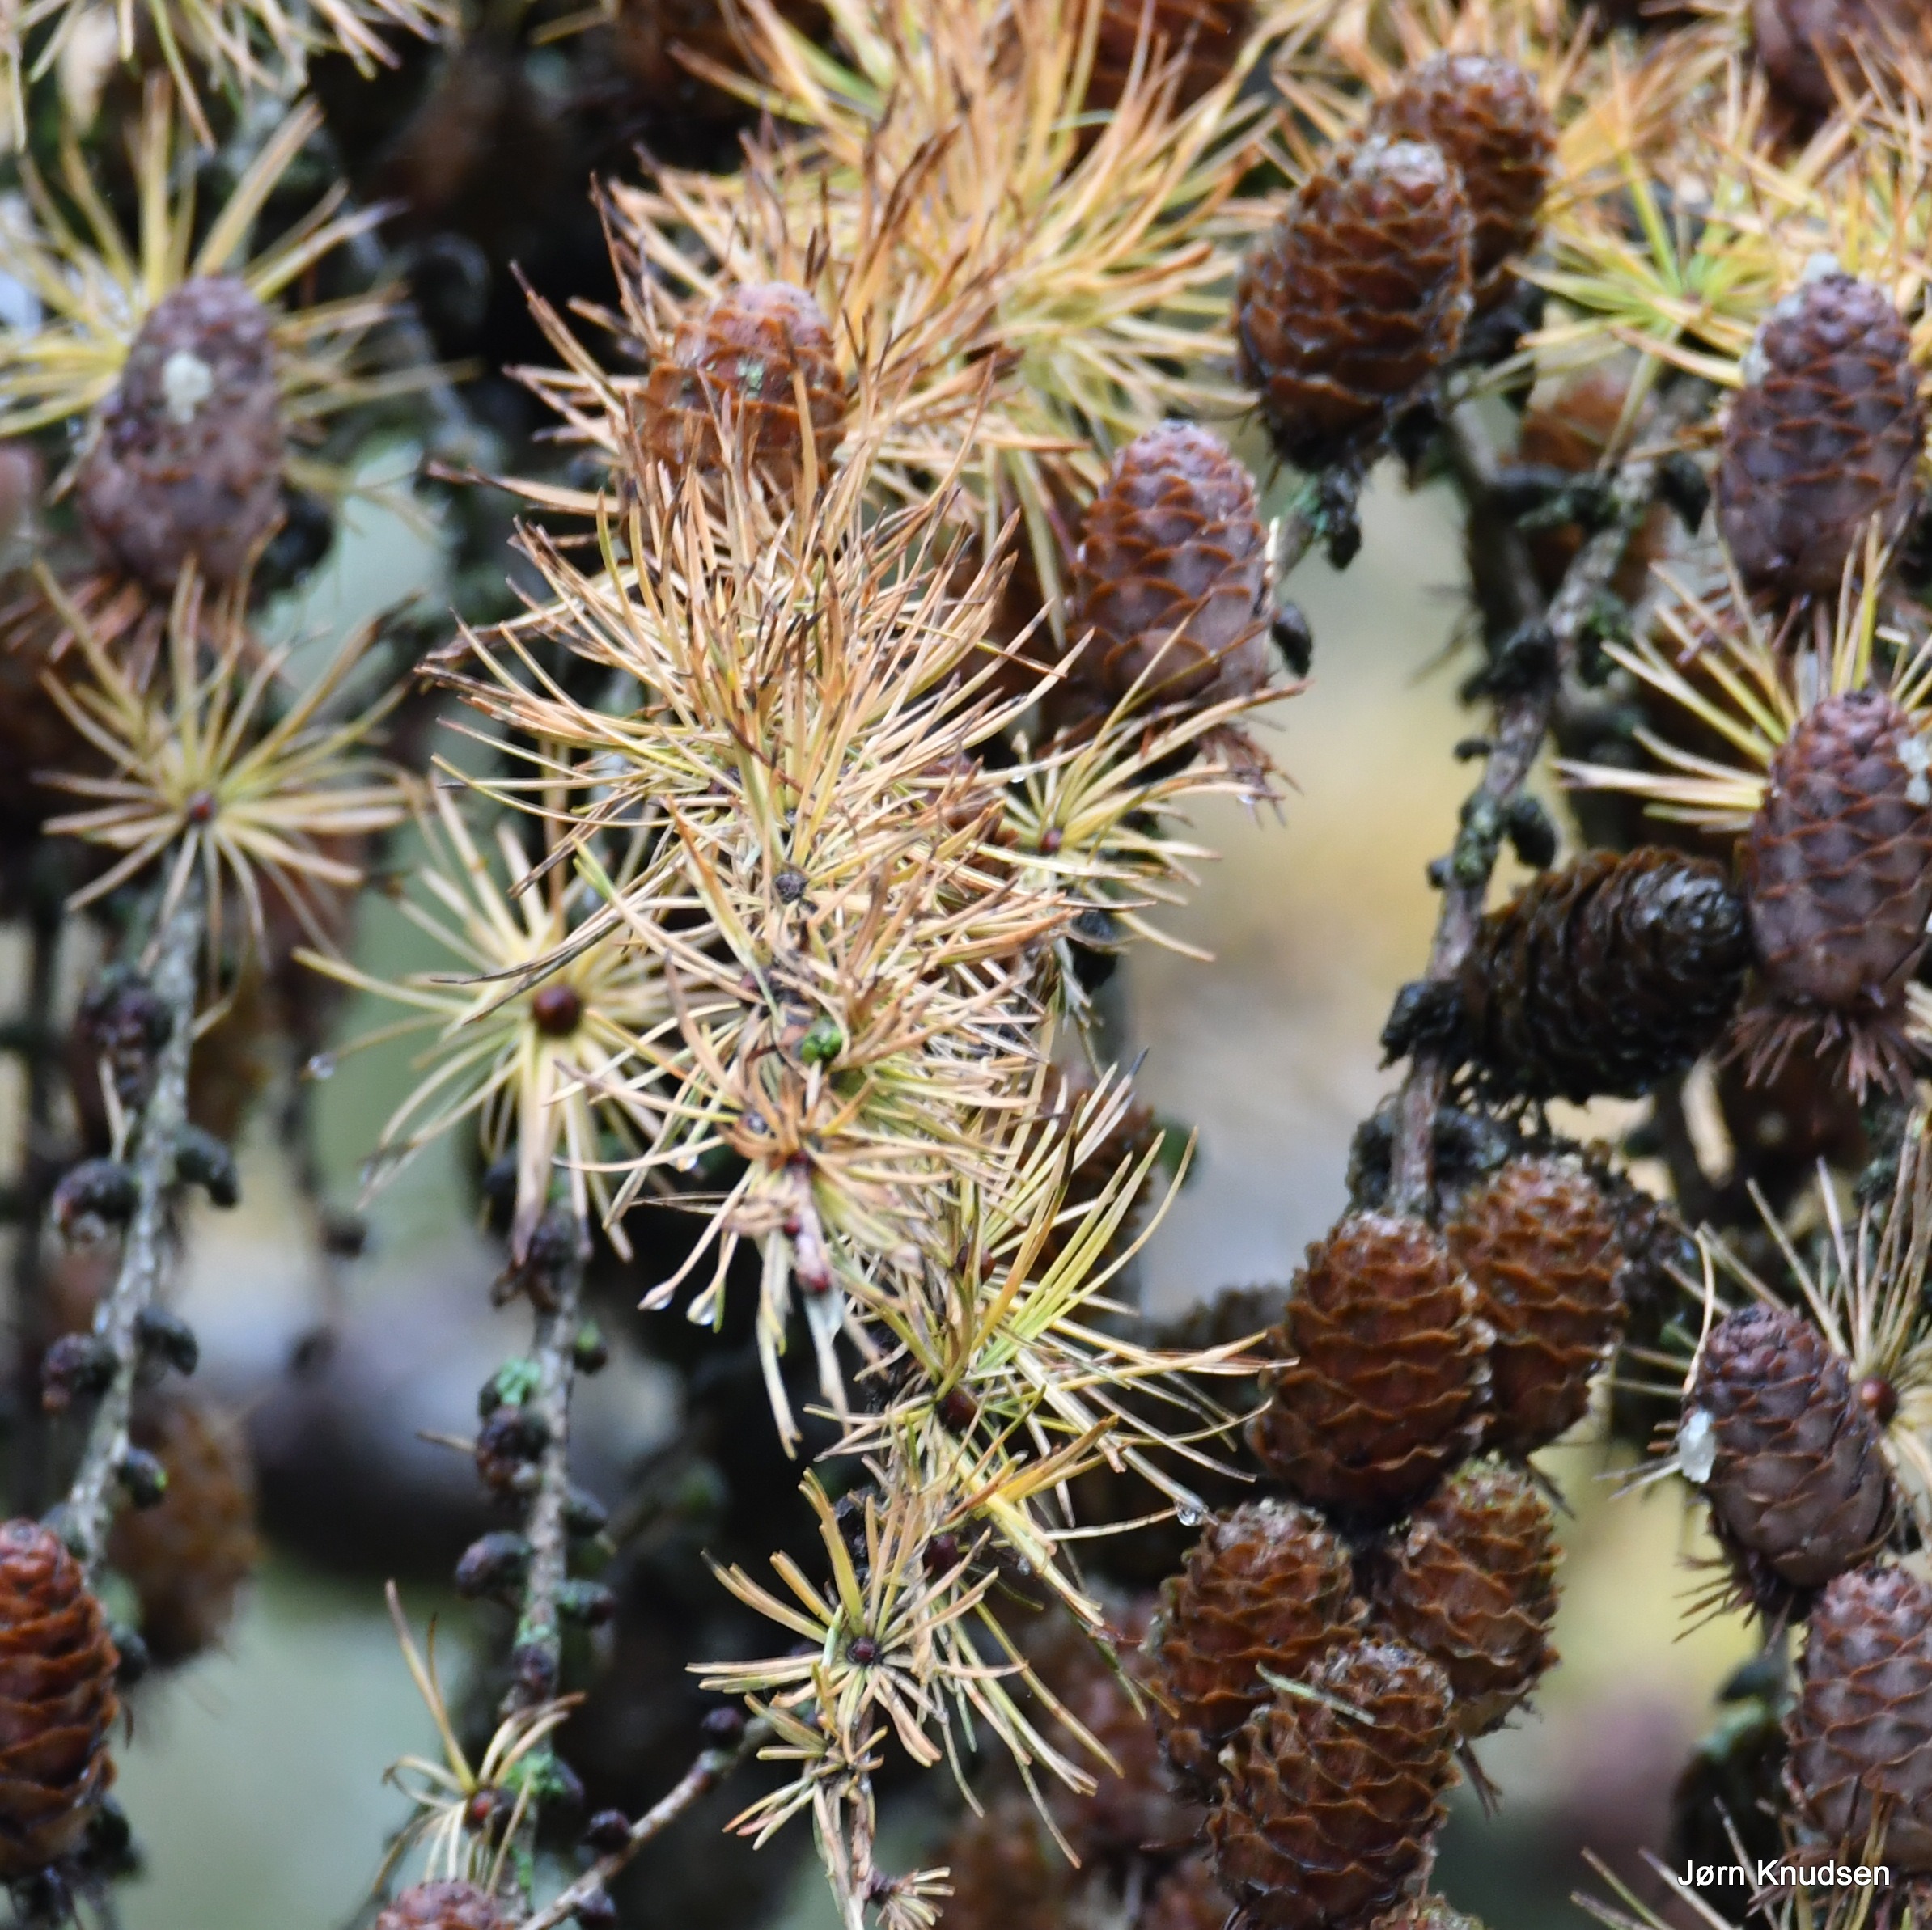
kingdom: Plantae
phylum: Tracheophyta
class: Pinopsida
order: Pinales
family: Pinaceae
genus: Larix
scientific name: Larix marschlinsii
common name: Hybrid-lærk
